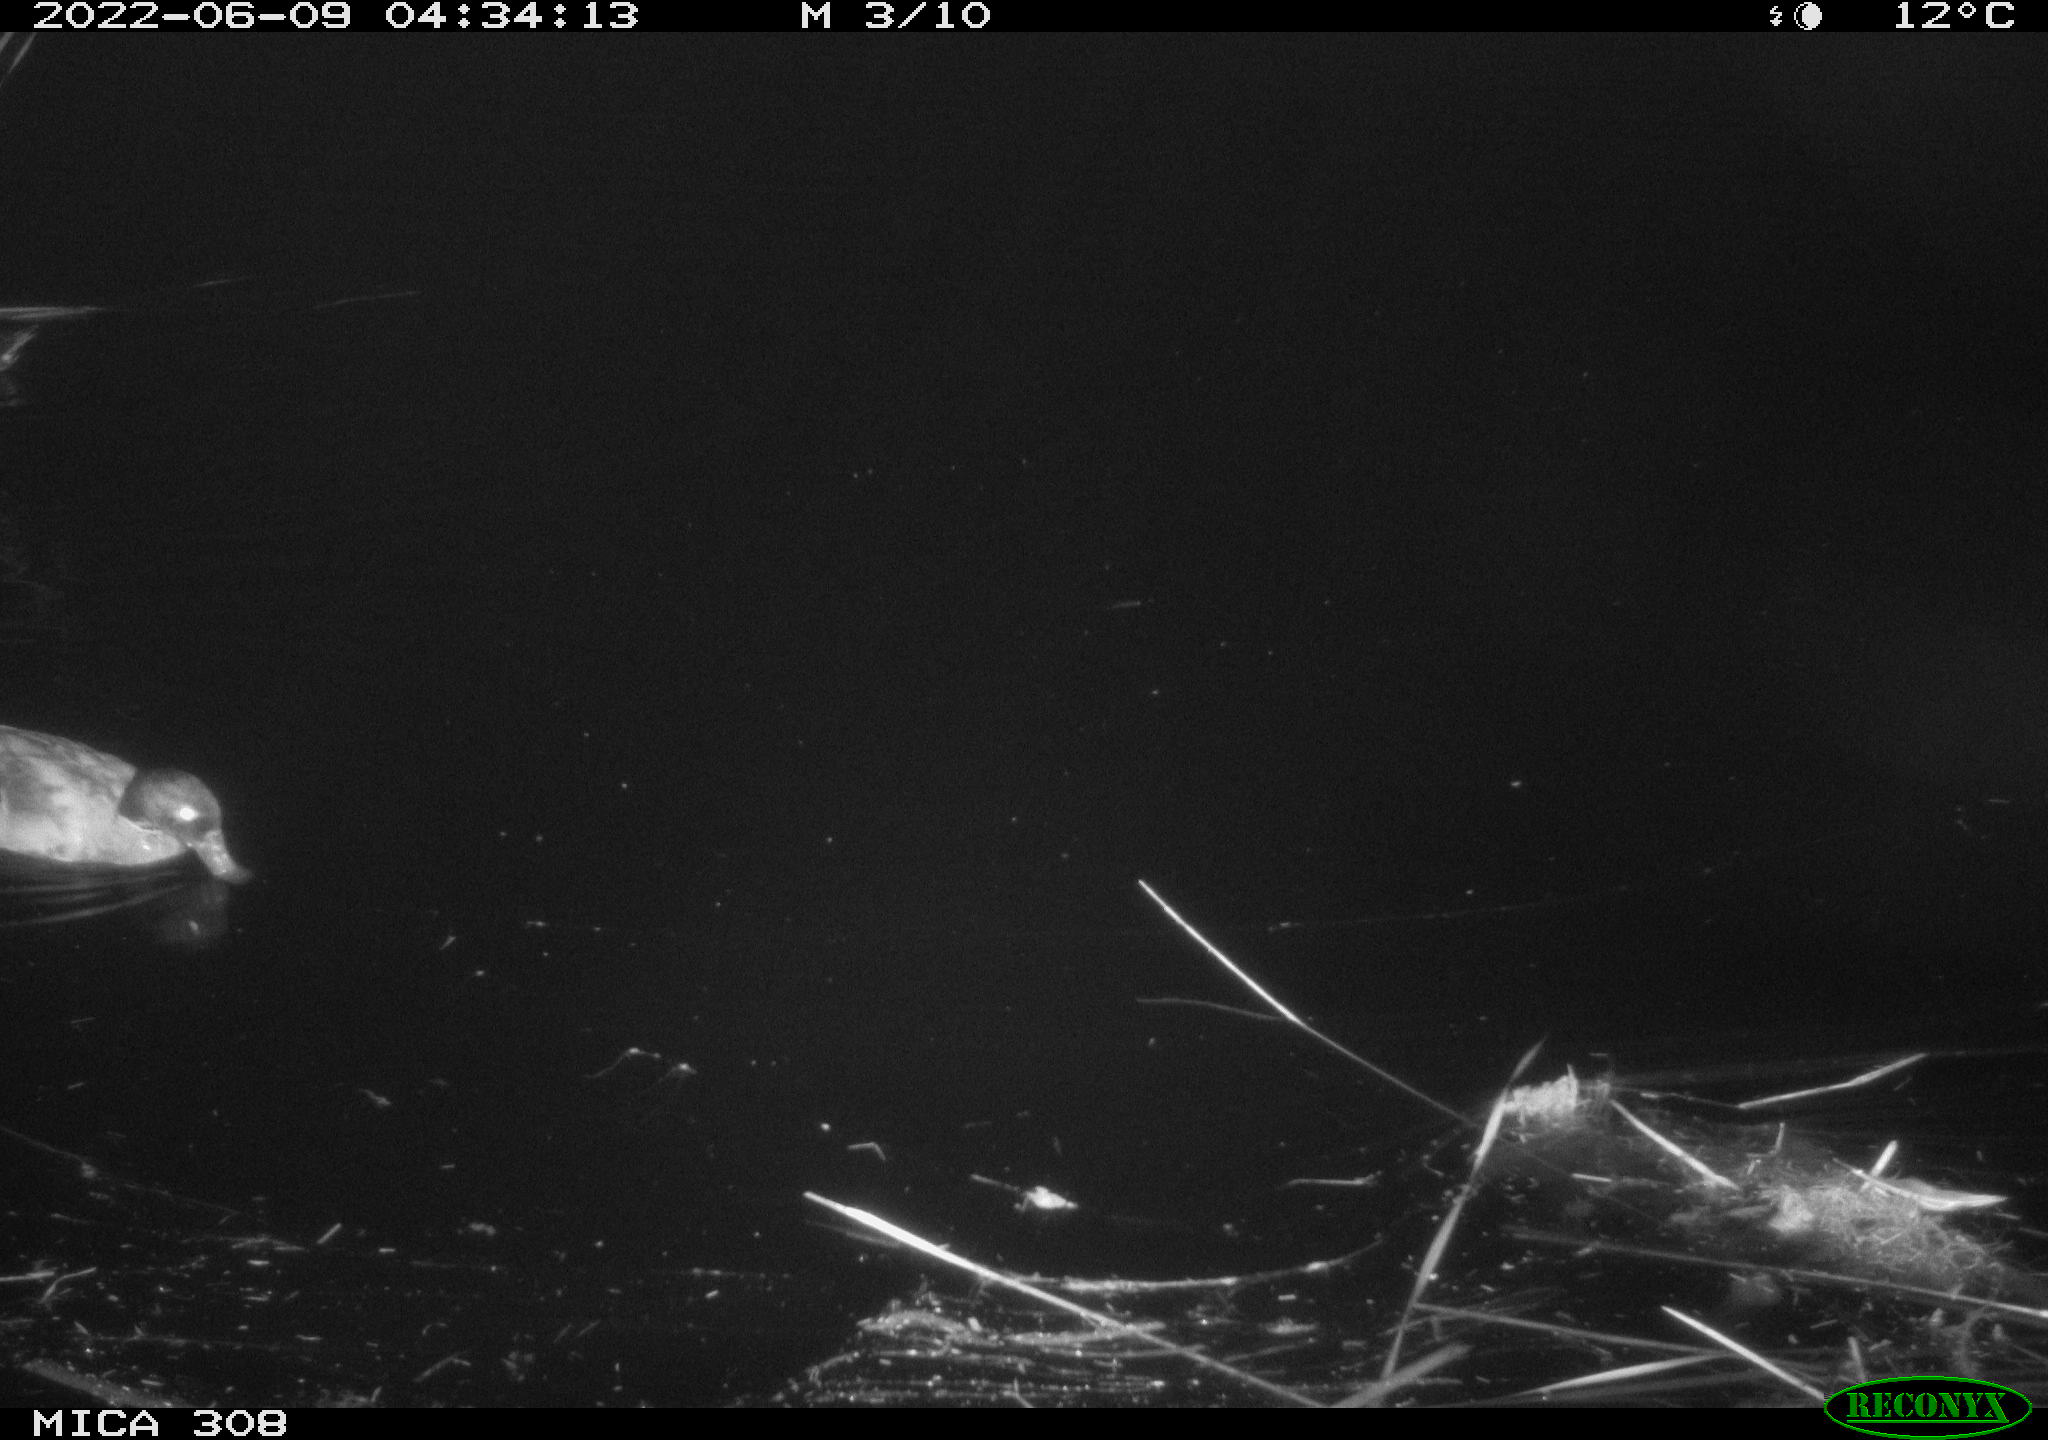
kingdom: Animalia
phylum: Chordata
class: Aves
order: Anseriformes
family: Anatidae
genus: Anas
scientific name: Anas platyrhynchos
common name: Mallard
